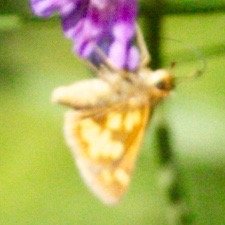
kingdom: Animalia
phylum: Arthropoda
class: Insecta
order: Lepidoptera
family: Hesperiidae
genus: Polites
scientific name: Polites coras
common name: Peck's Skipper
